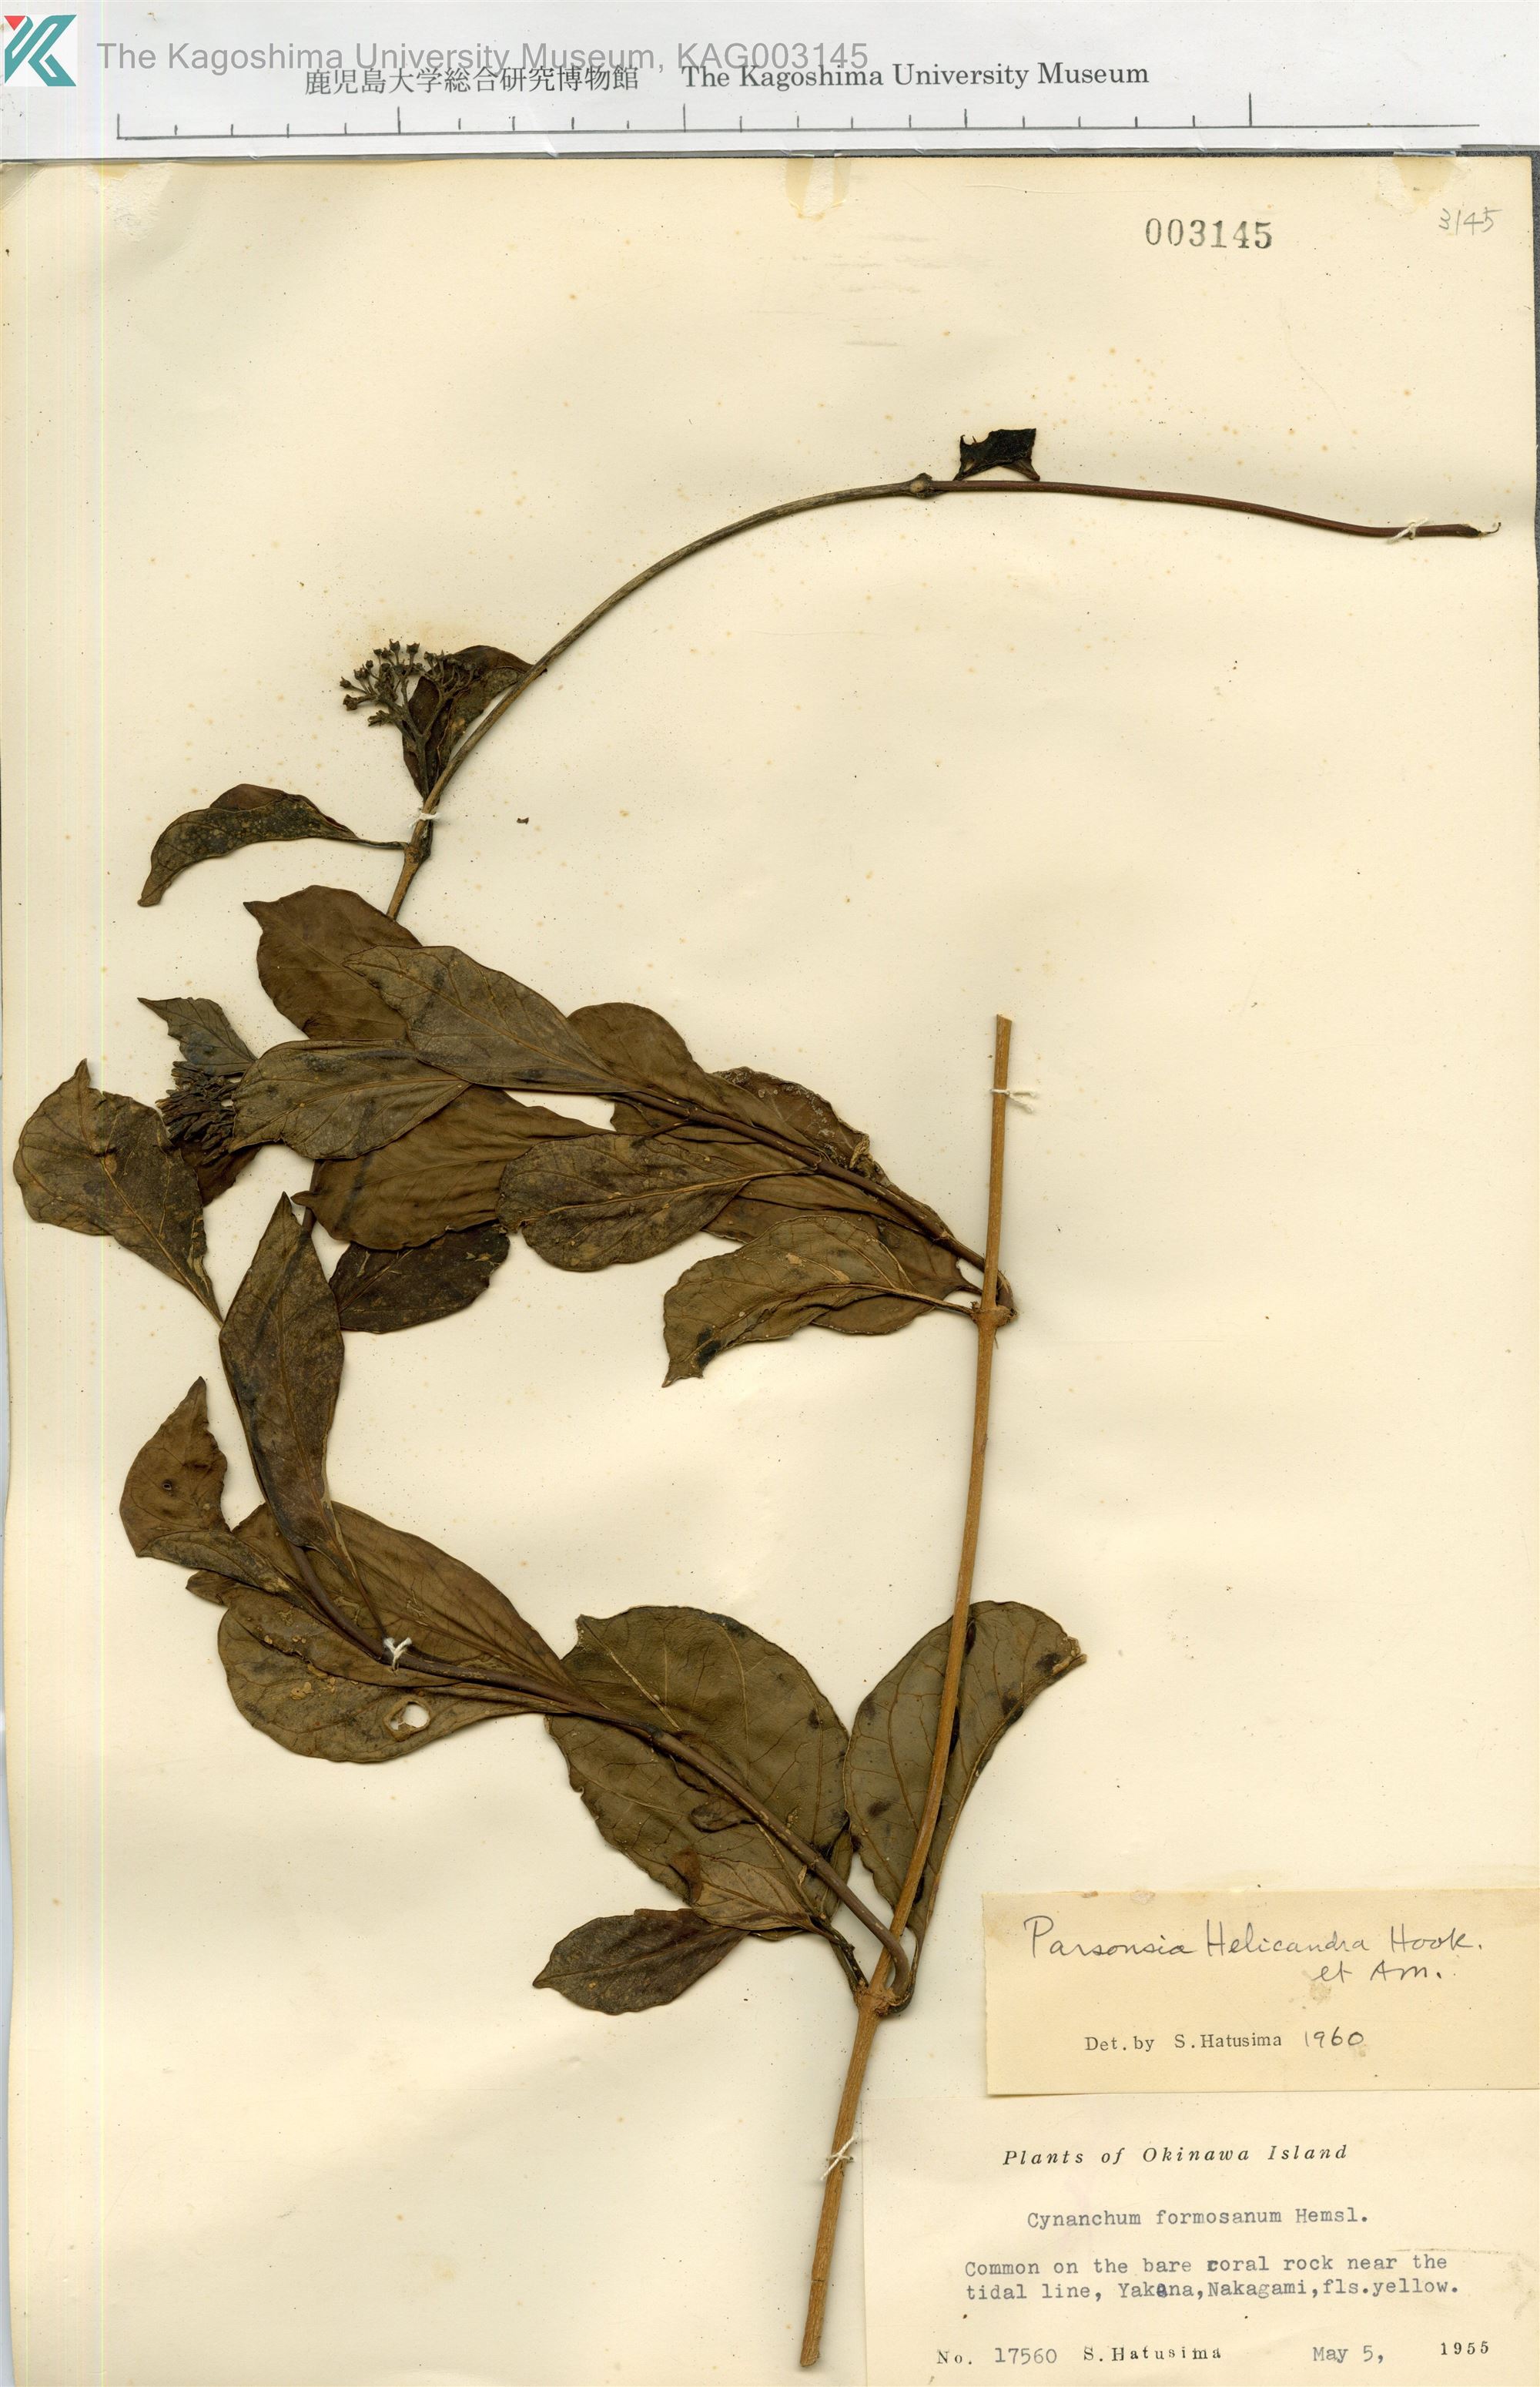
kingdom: Plantae
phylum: Tracheophyta
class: Magnoliopsida
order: Gentianales
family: Apocynaceae
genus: Parsonsia
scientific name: Parsonsia alboflavescens
